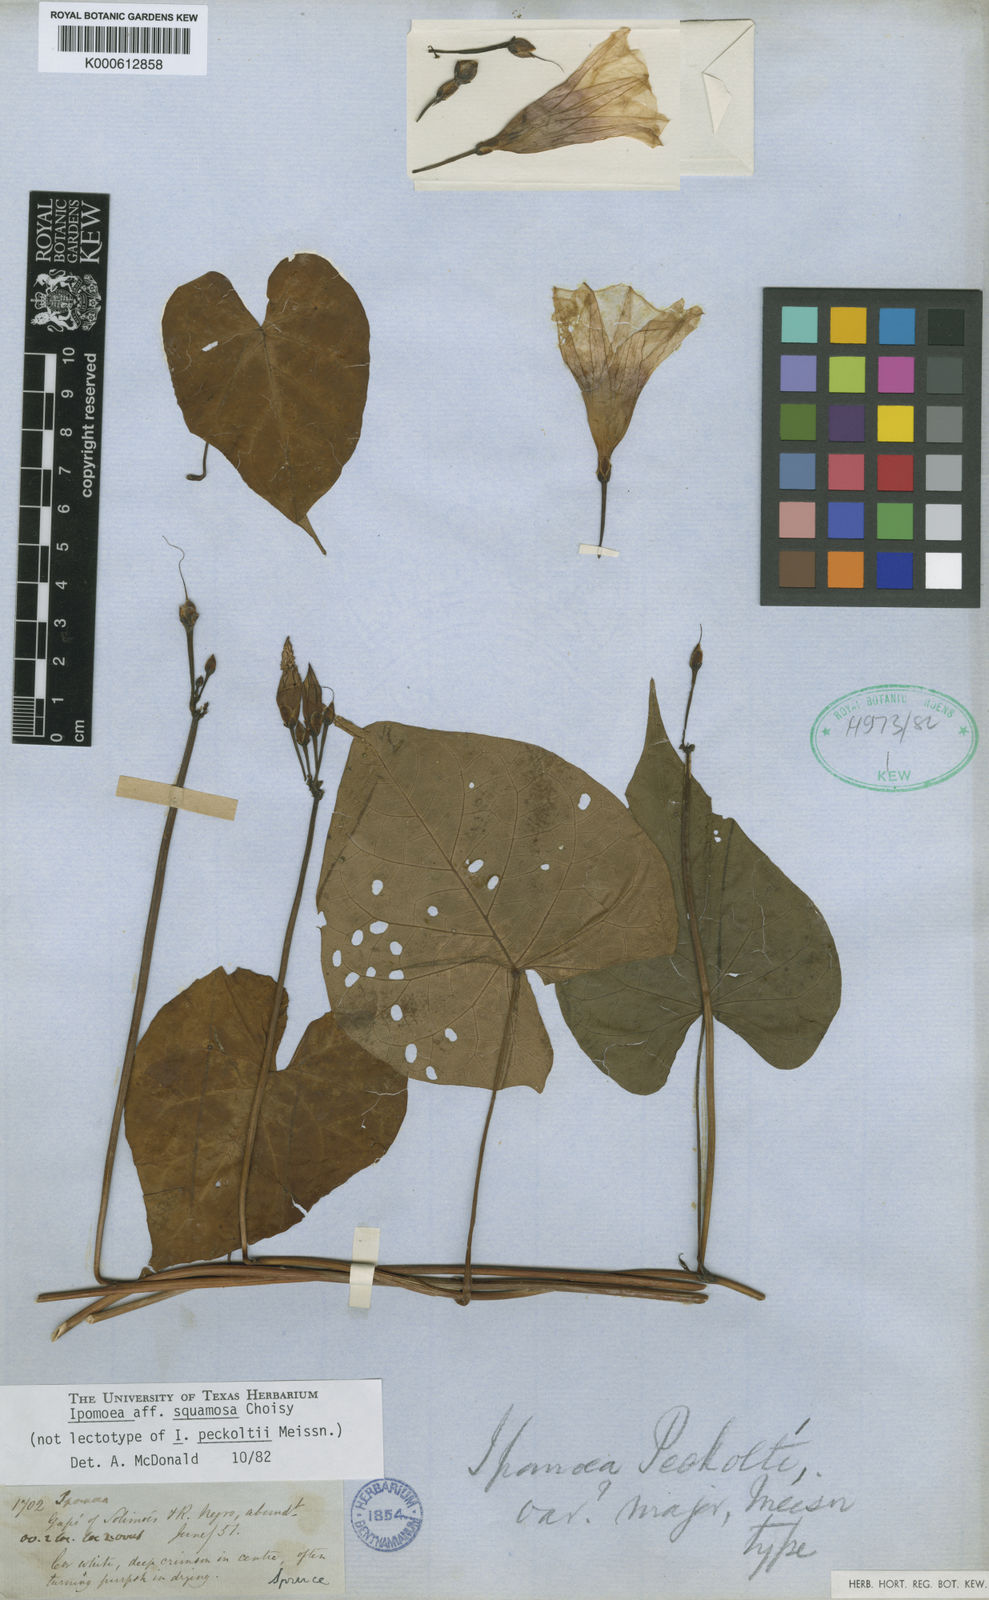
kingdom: Plantae
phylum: Tracheophyta
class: Magnoliopsida
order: Solanales
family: Convolvulaceae
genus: Ipomoea
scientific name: Ipomoea squamosa
